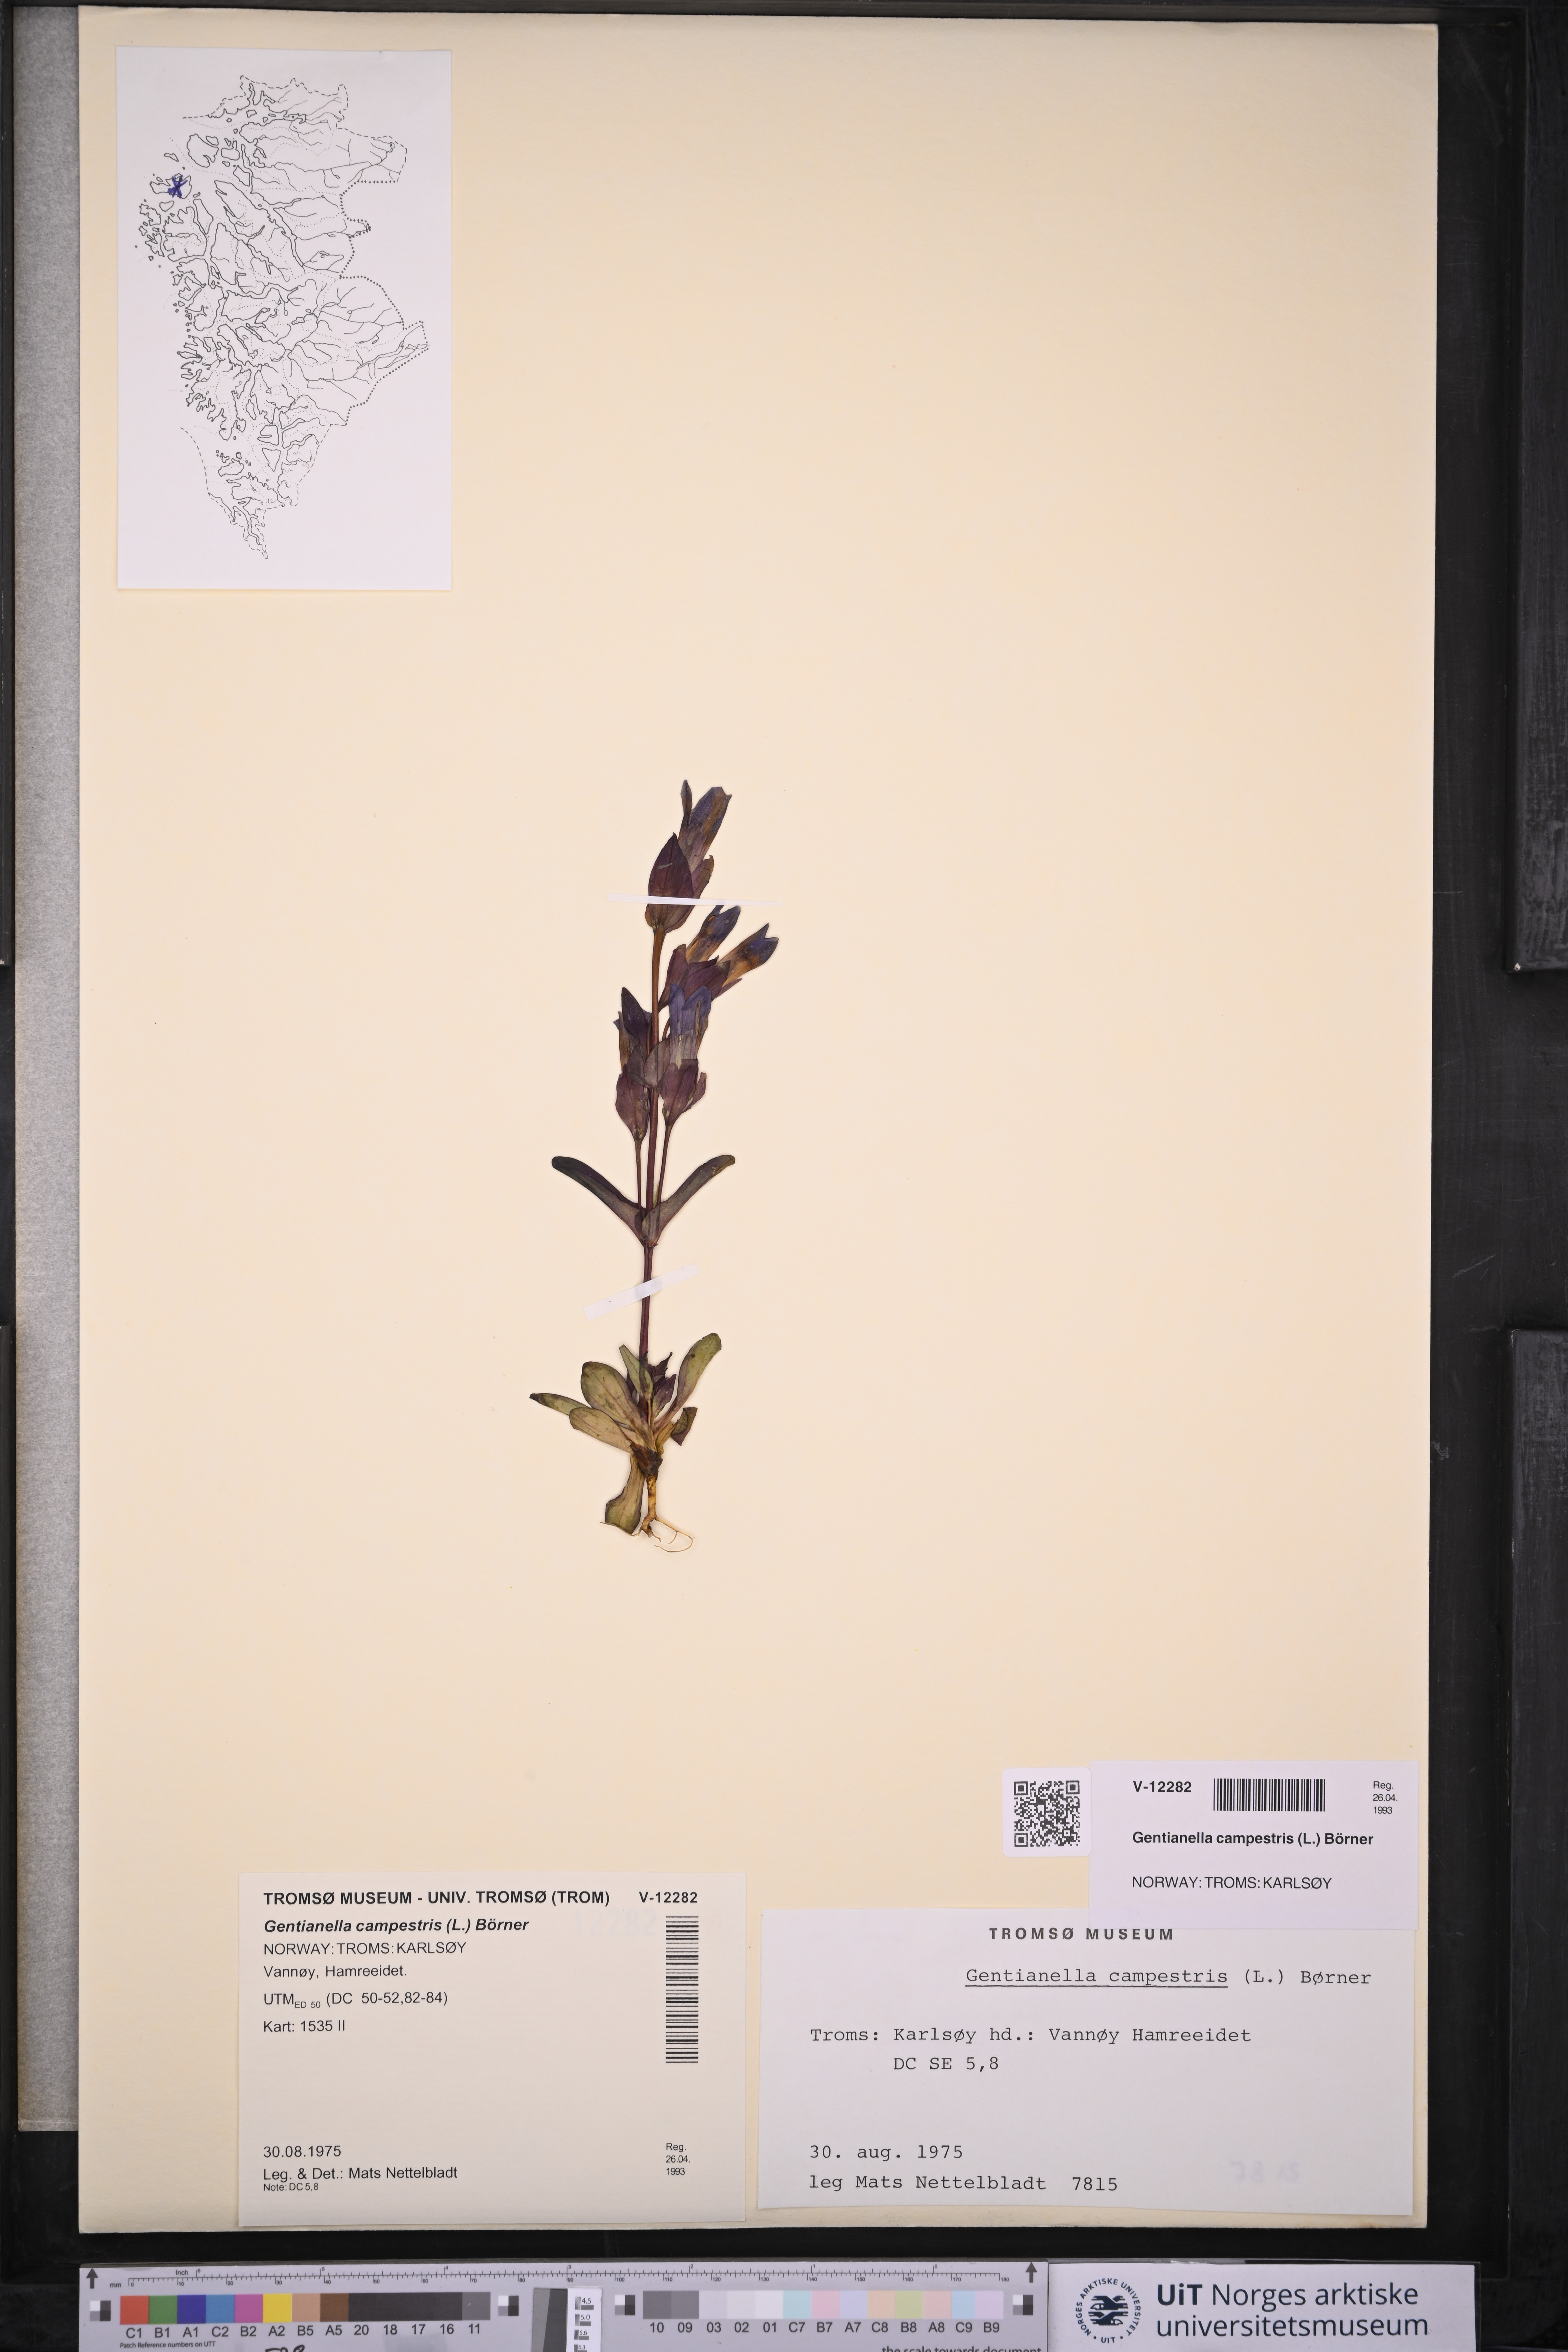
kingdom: Plantae
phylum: Tracheophyta
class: Magnoliopsida
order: Gentianales
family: Gentianaceae
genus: Gentianella
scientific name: Gentianella campestris
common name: Field gentian
